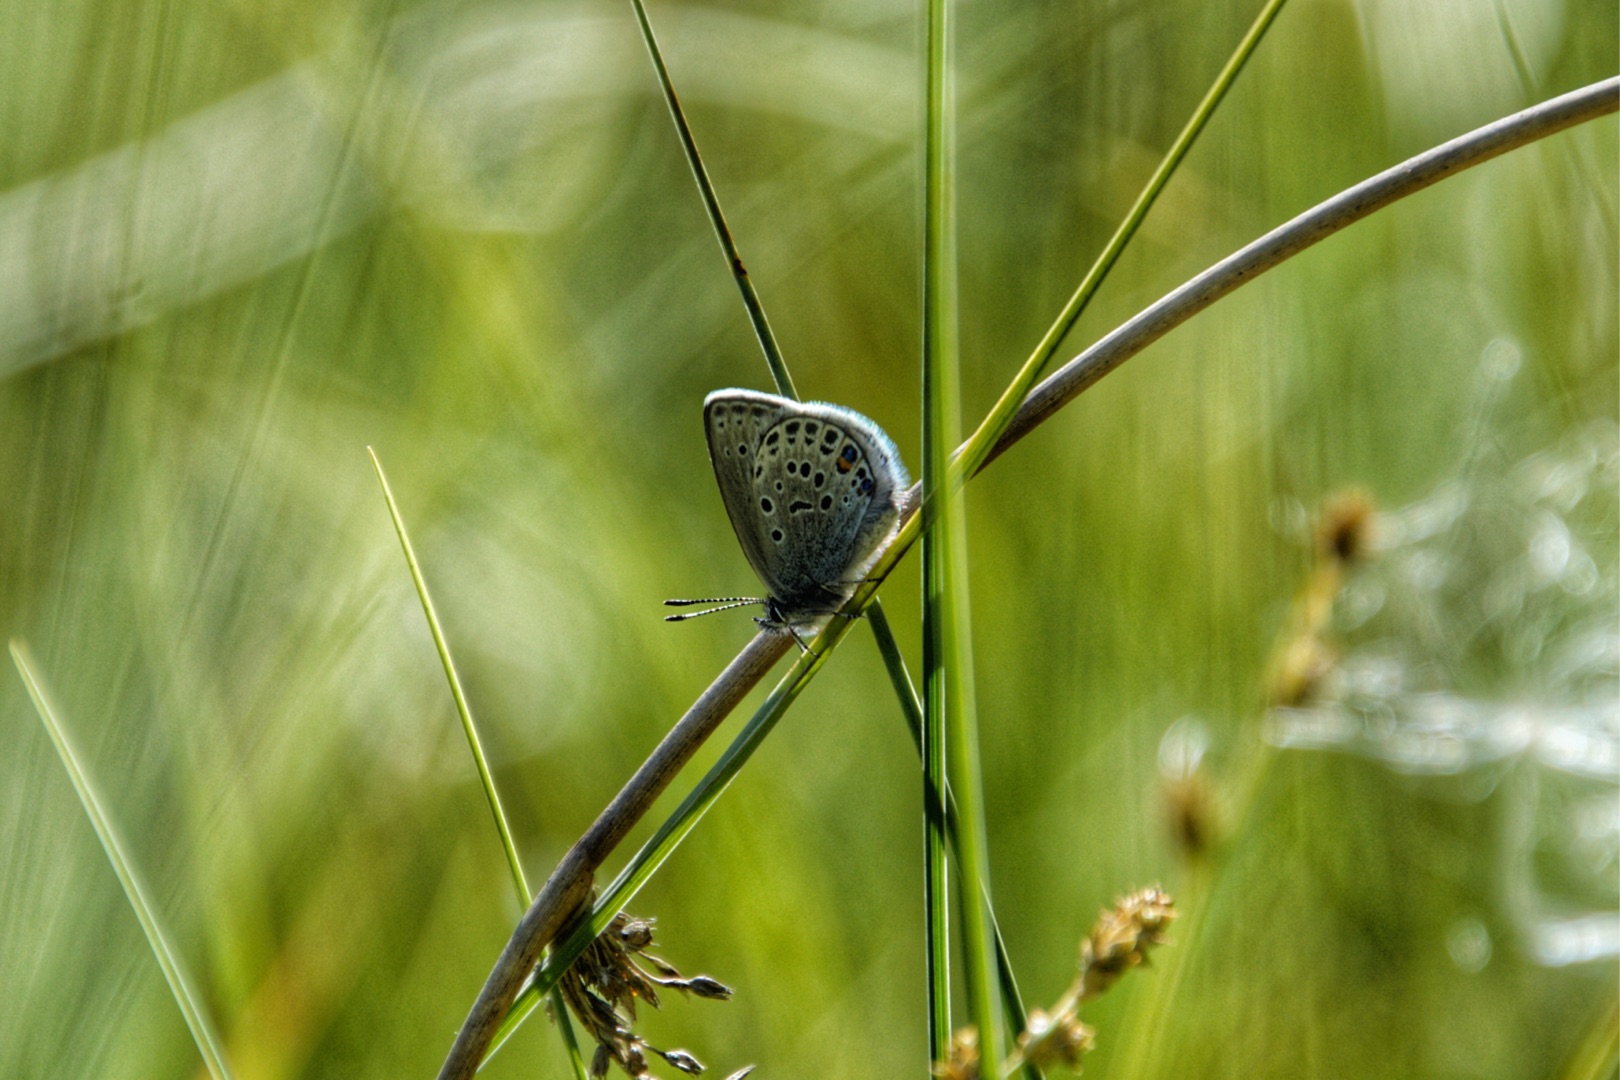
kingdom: Animalia
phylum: Arthropoda
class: Insecta
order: Lepidoptera
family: Lycaenidae
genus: Vacciniina
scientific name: Vacciniina optilete
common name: Bølleblåfugl
